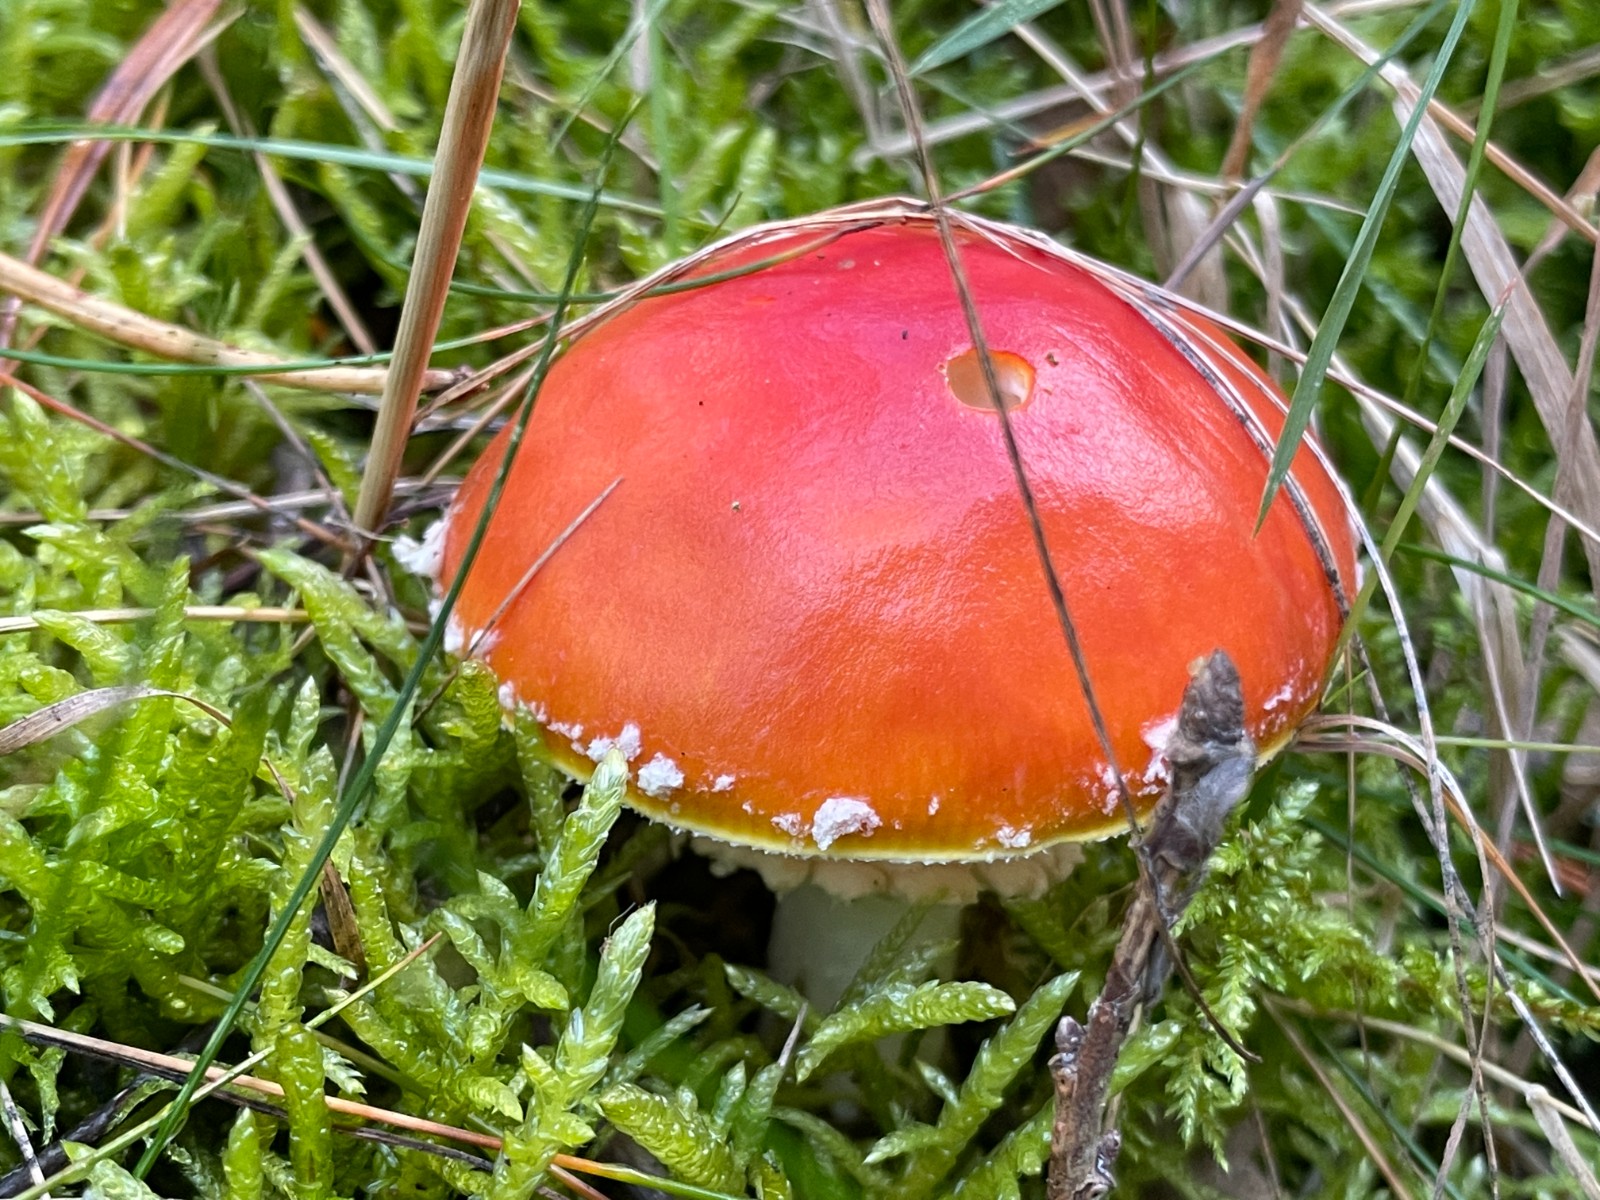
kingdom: Fungi
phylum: Basidiomycota
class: Agaricomycetes
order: Agaricales
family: Amanitaceae
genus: Amanita
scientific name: Amanita muscaria
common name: rød fluesvamp
